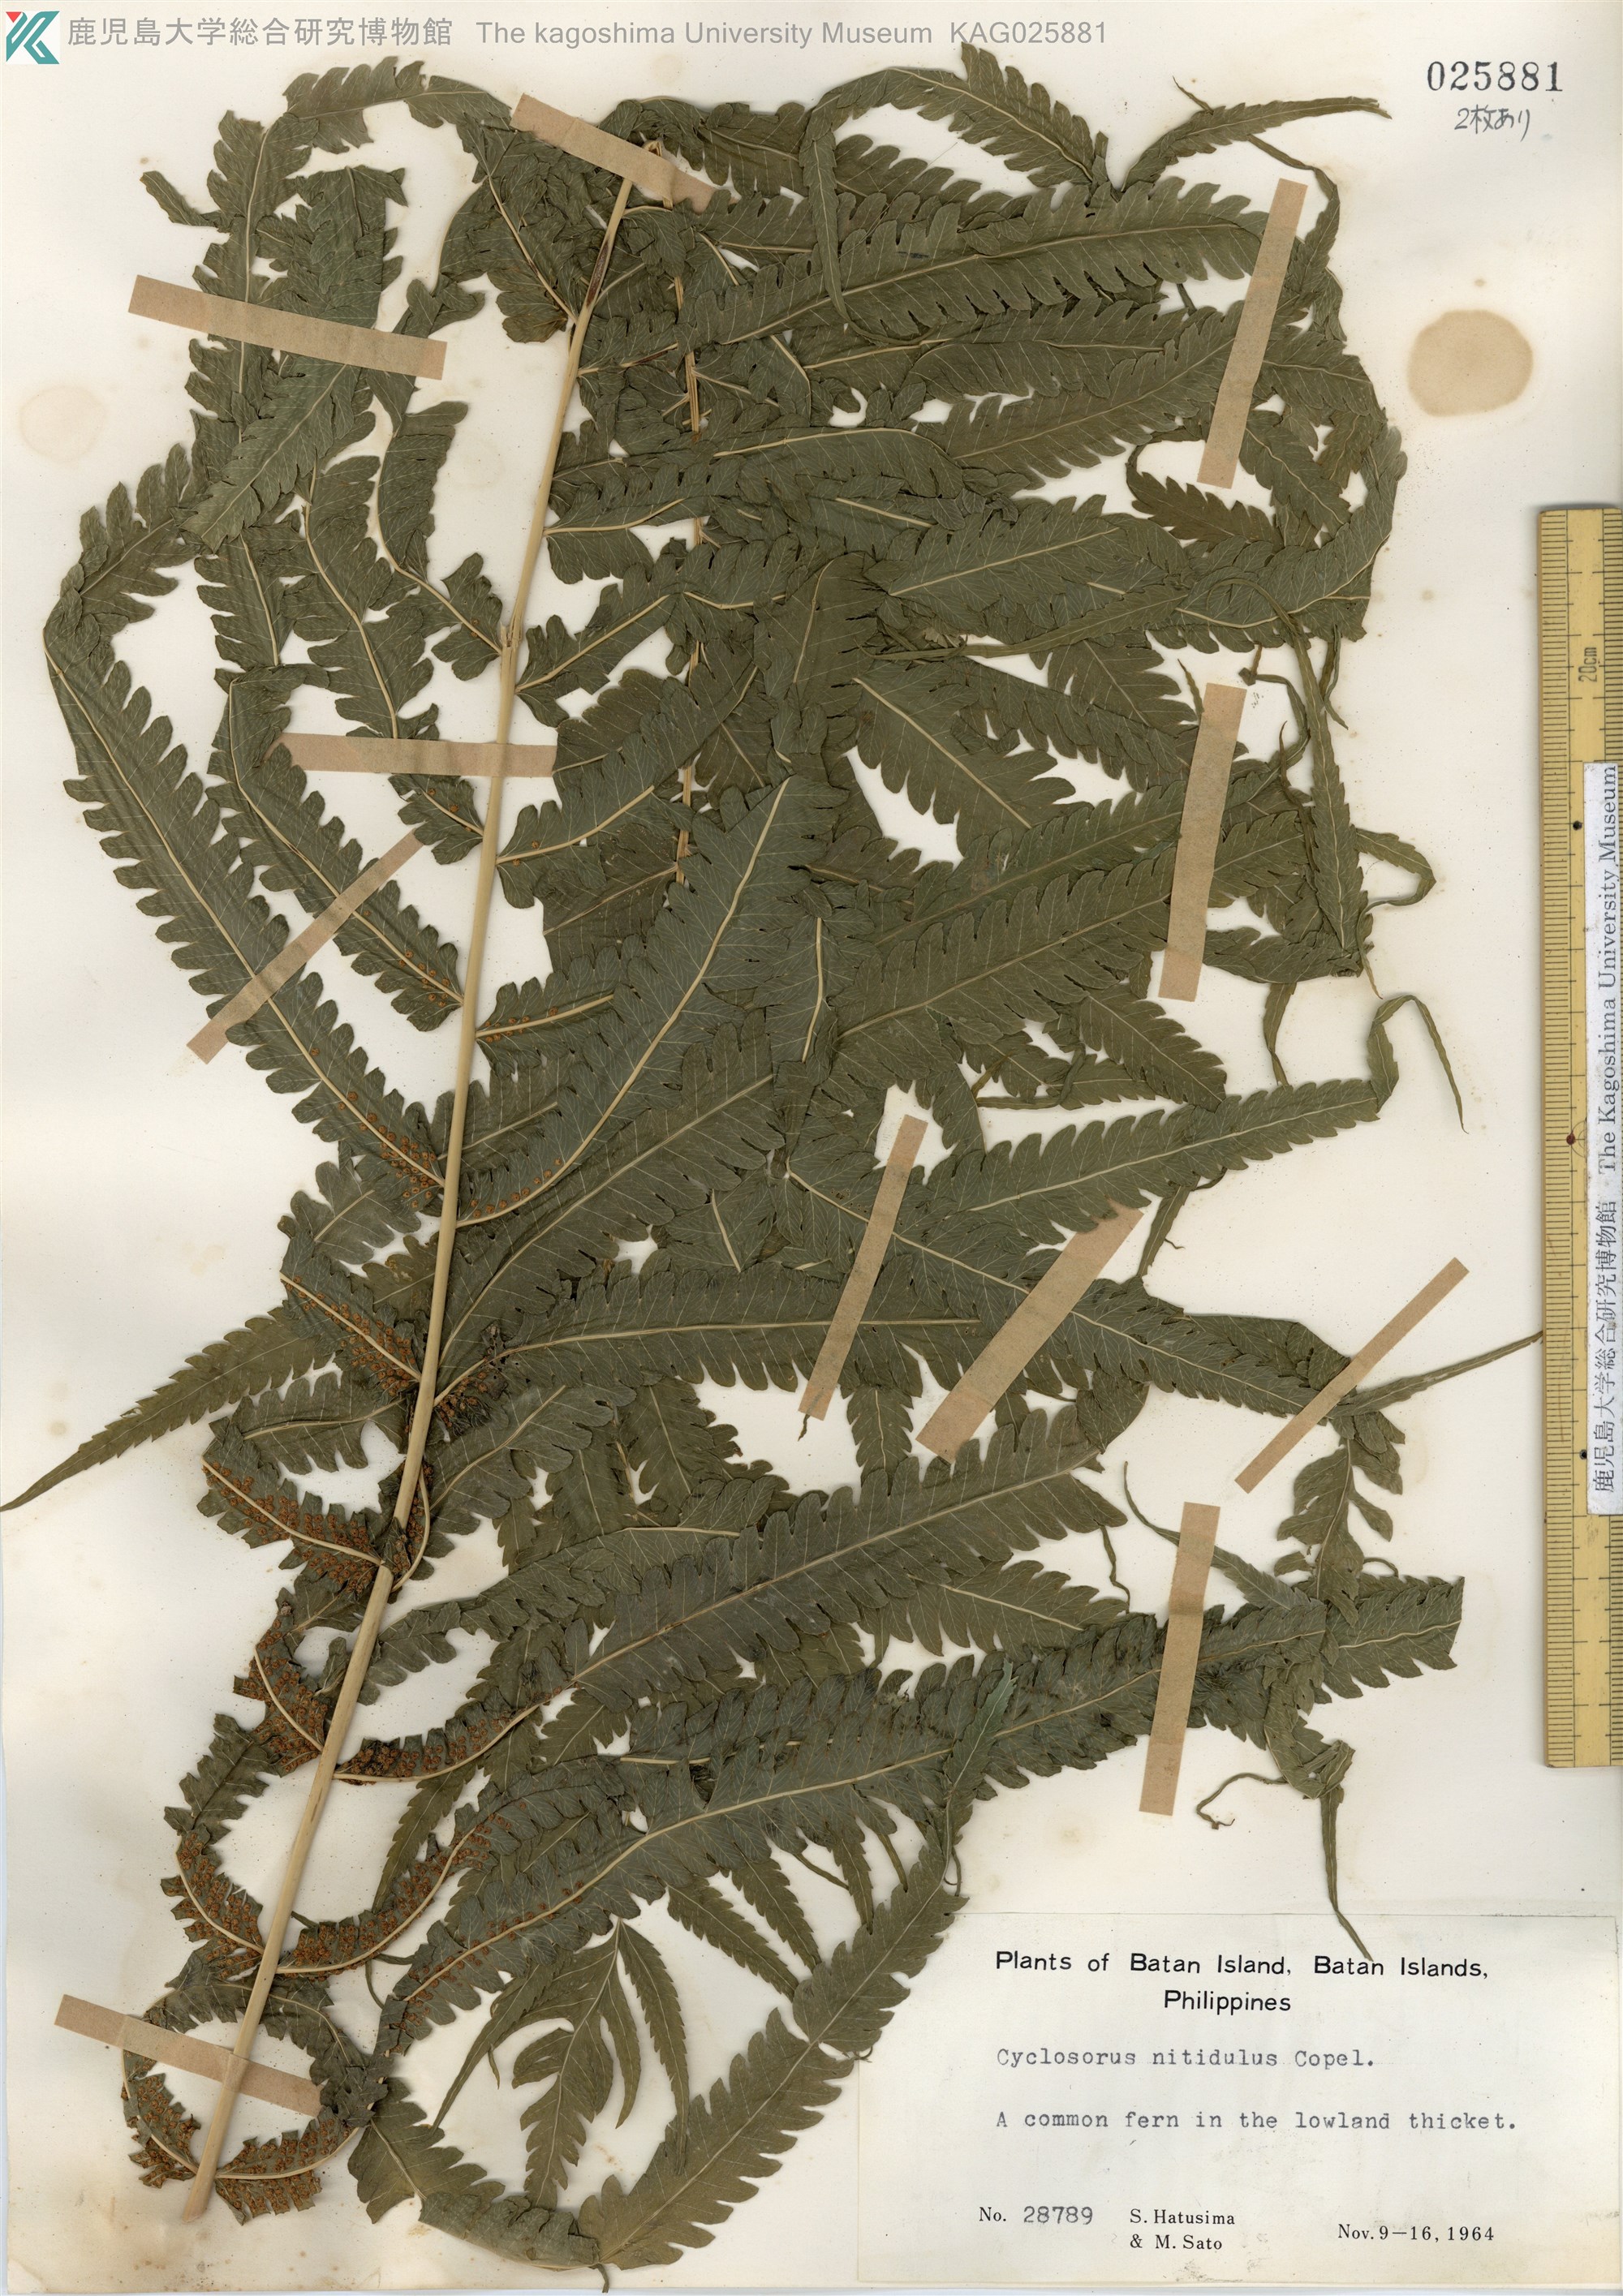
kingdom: Plantae
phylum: Tracheophyta
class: Polypodiopsida
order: Polypodiales
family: Thelypteridaceae
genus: Reholttumia
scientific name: Reholttumia nitidula
